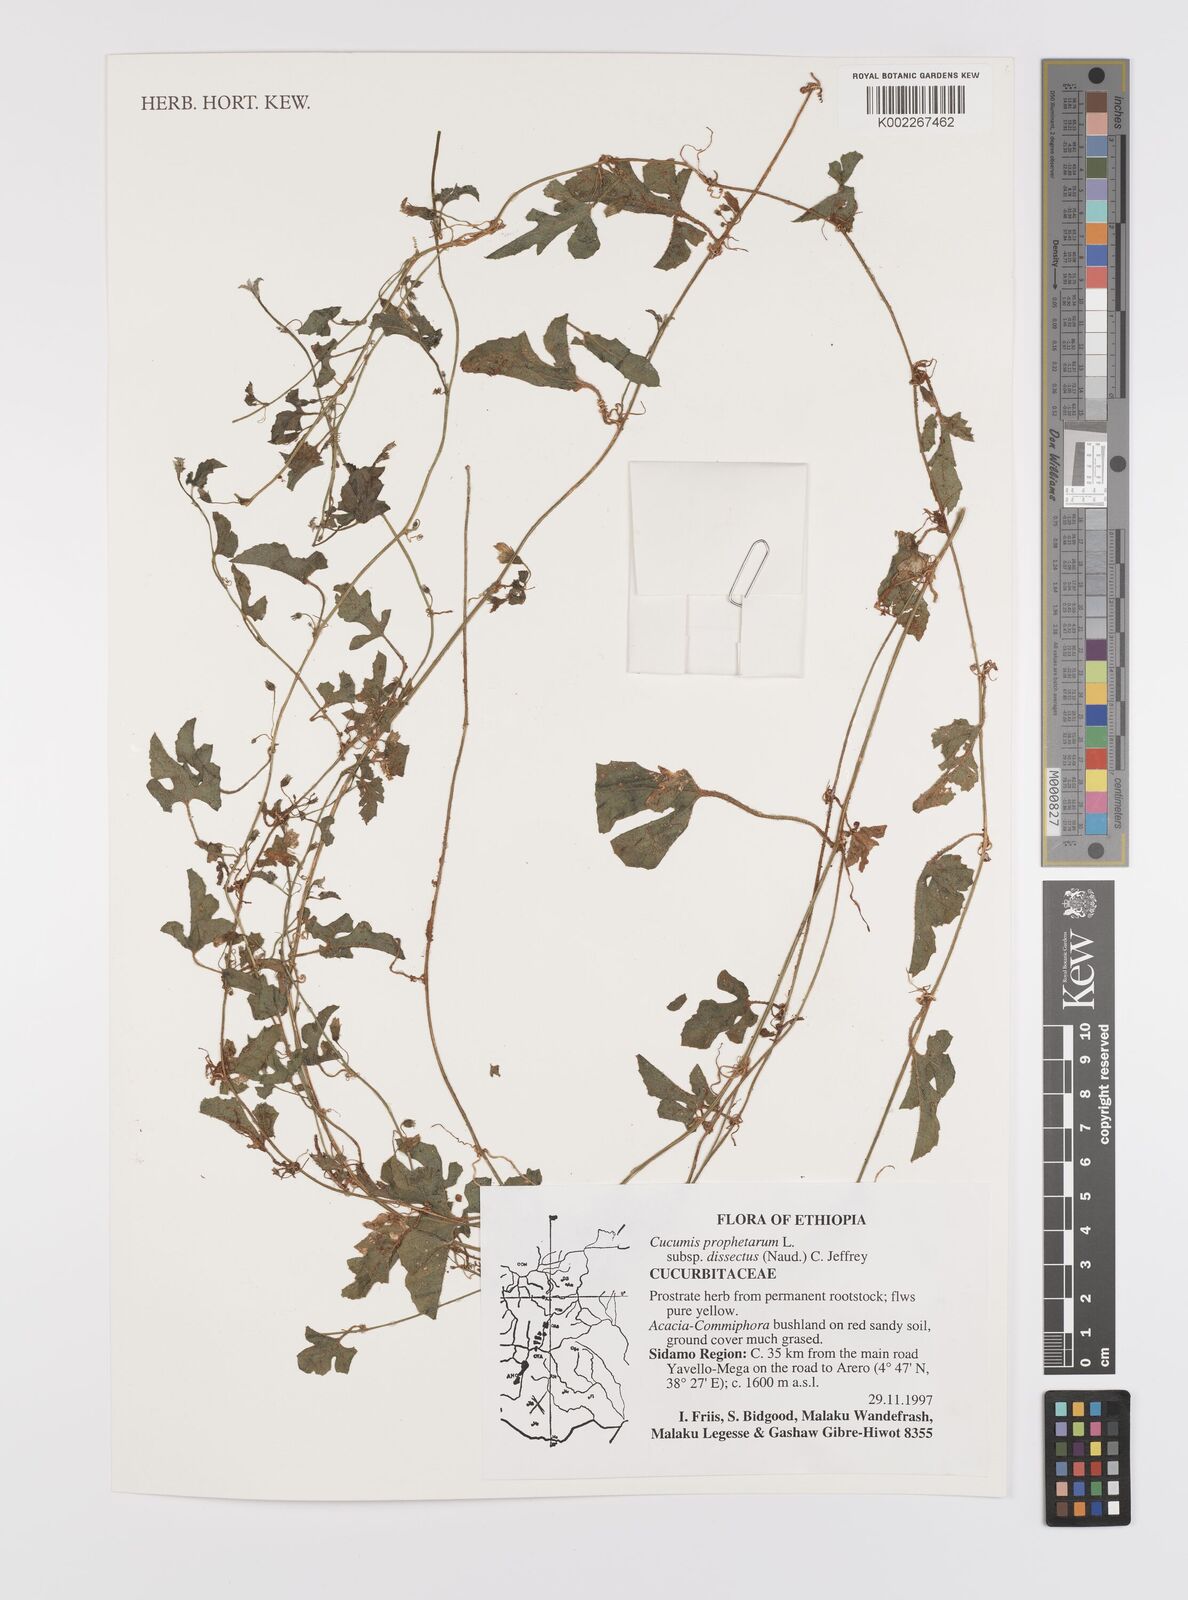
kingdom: Plantae
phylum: Tracheophyta
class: Magnoliopsida
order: Cucurbitales
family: Cucurbitaceae
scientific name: Cucurbitaceae
